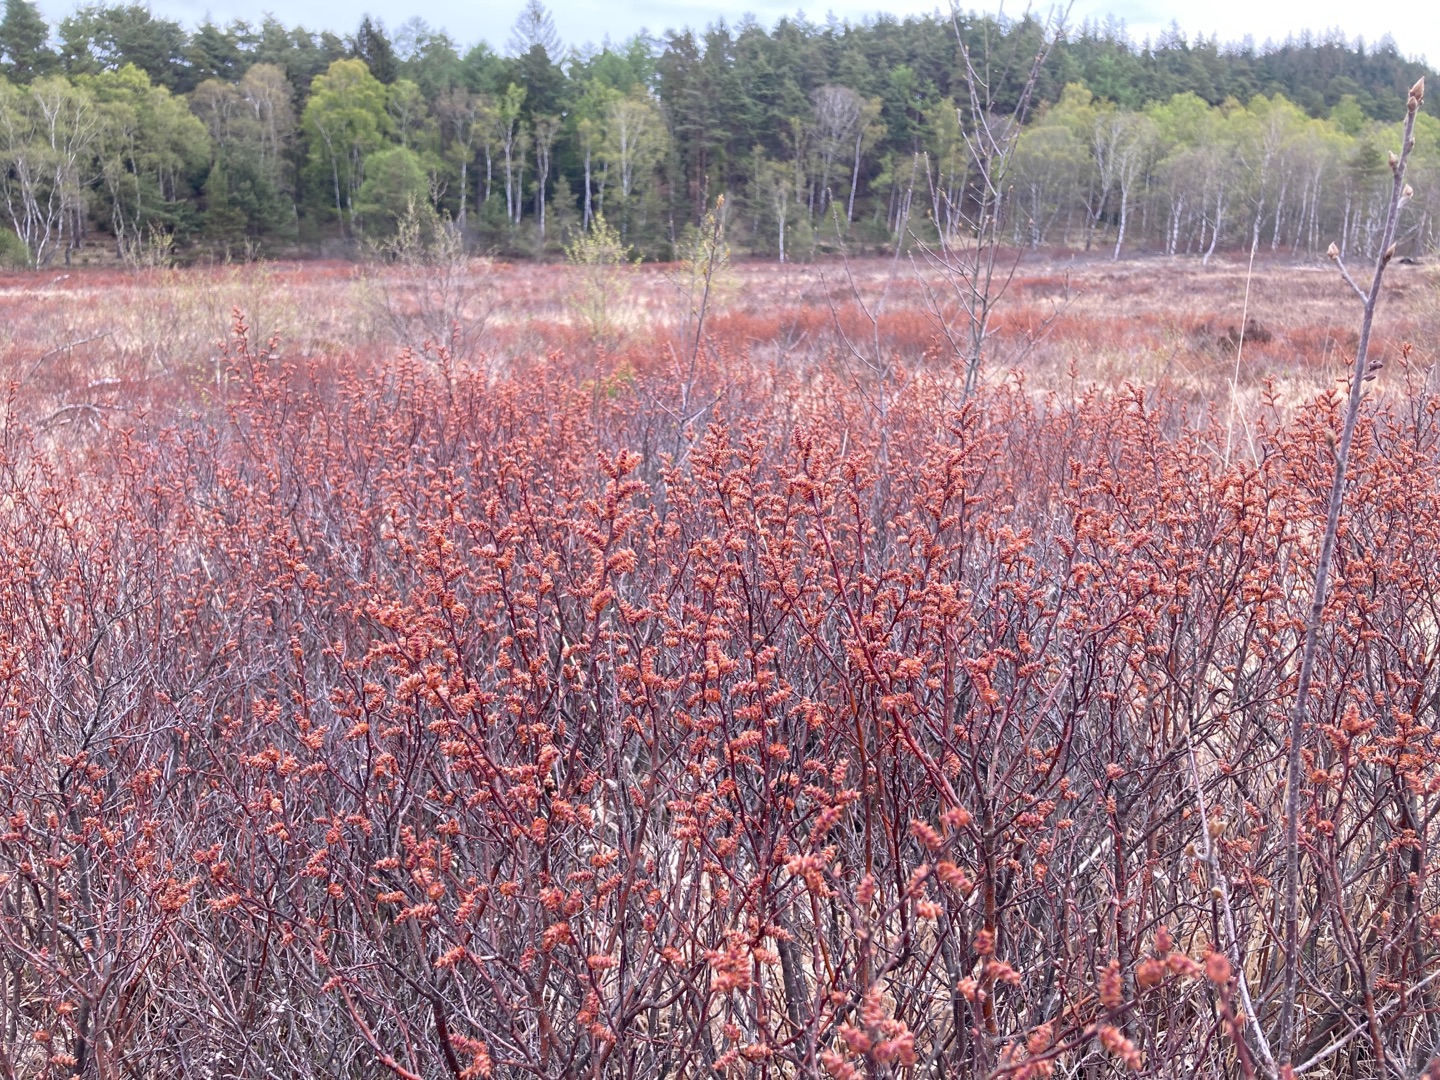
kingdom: Plantae
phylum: Tracheophyta
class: Magnoliopsida
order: Fagales
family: Myricaceae
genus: Myrica
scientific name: Myrica gale
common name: Pors
